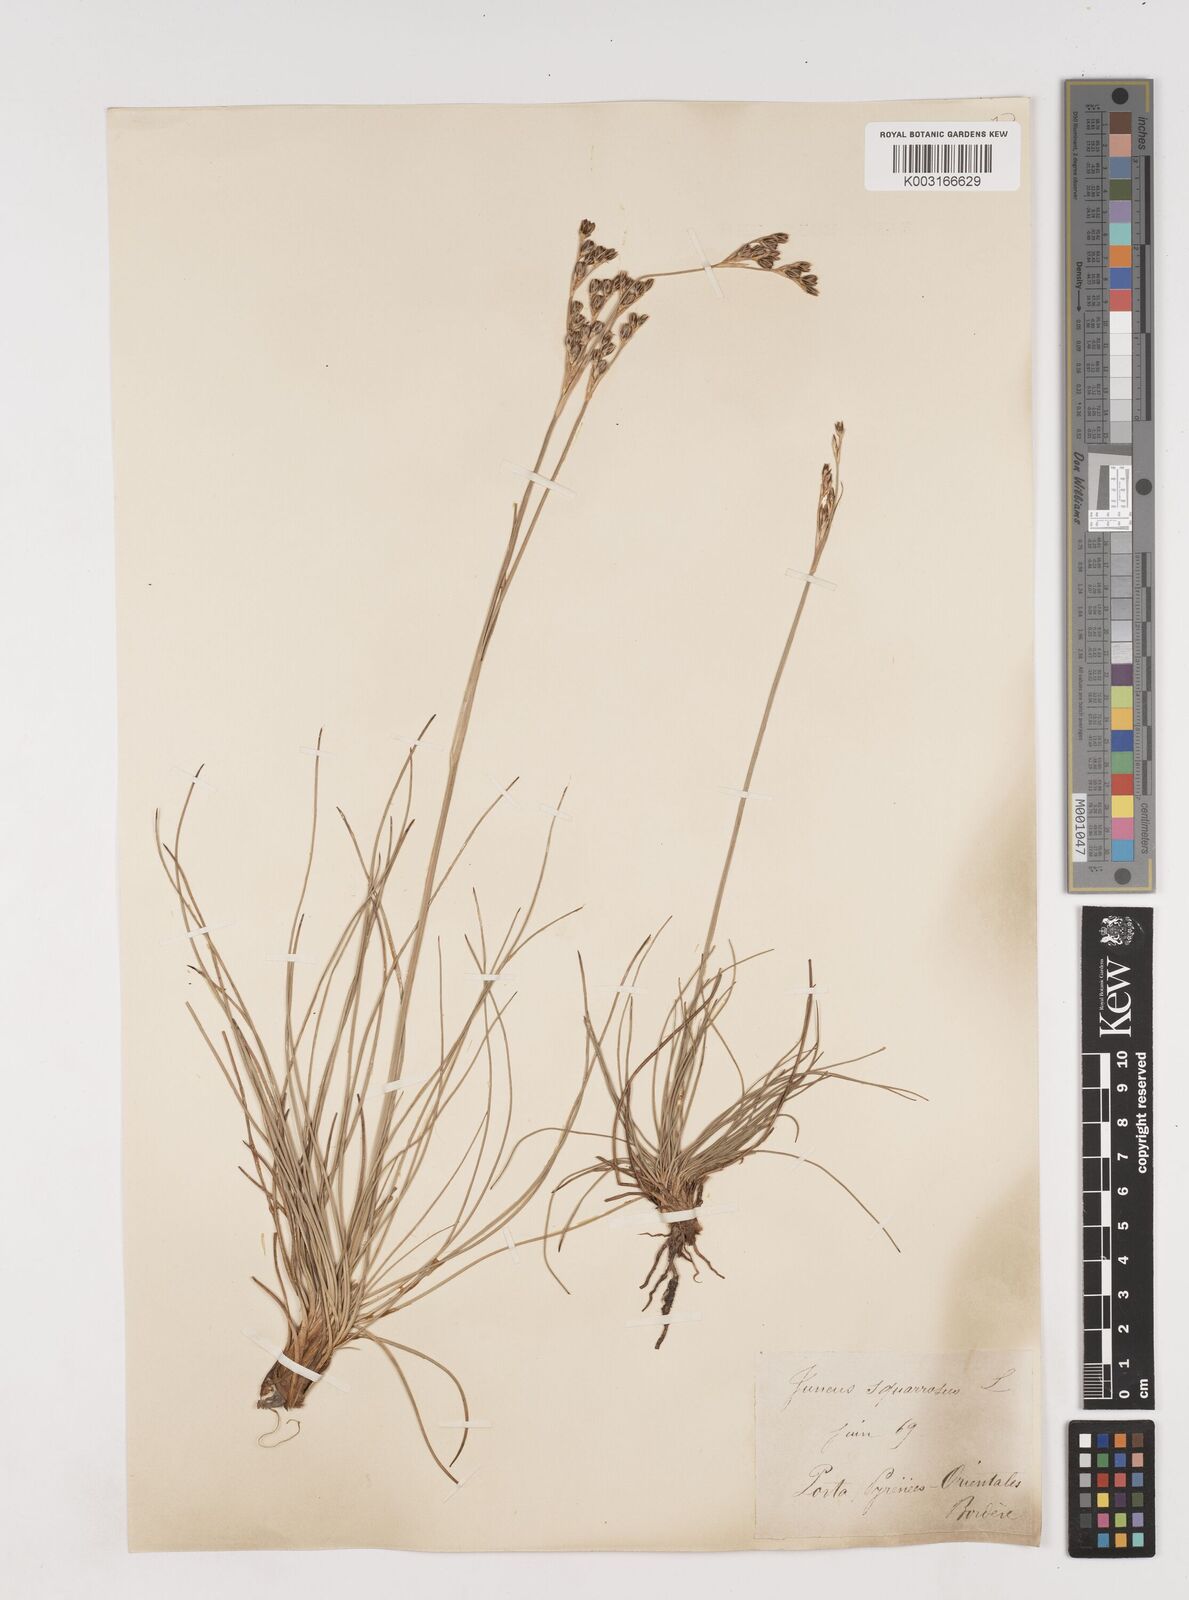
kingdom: Plantae
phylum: Tracheophyta
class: Liliopsida
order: Poales
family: Juncaceae
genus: Juncus
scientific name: Juncus squarrosus
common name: Heath rush
